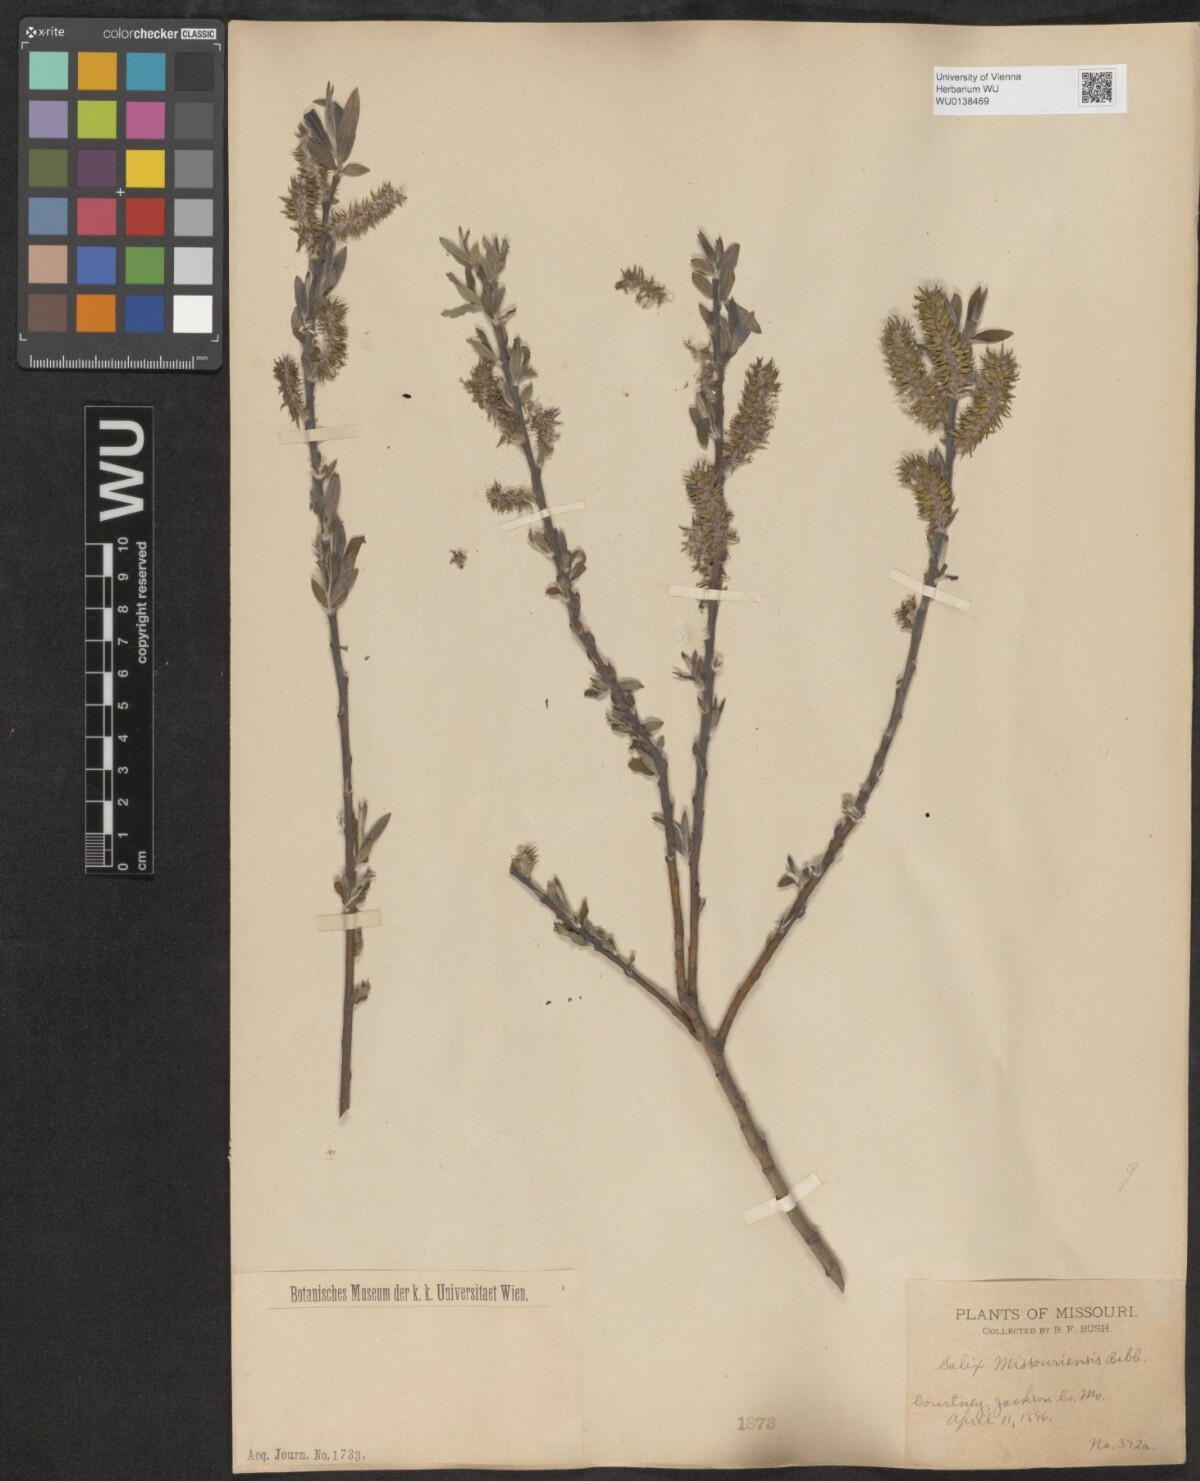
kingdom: Plantae
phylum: Tracheophyta
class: Magnoliopsida
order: Malpighiales
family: Salicaceae
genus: Salix
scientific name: Salix eriocephala
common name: Heart-leaved willow
